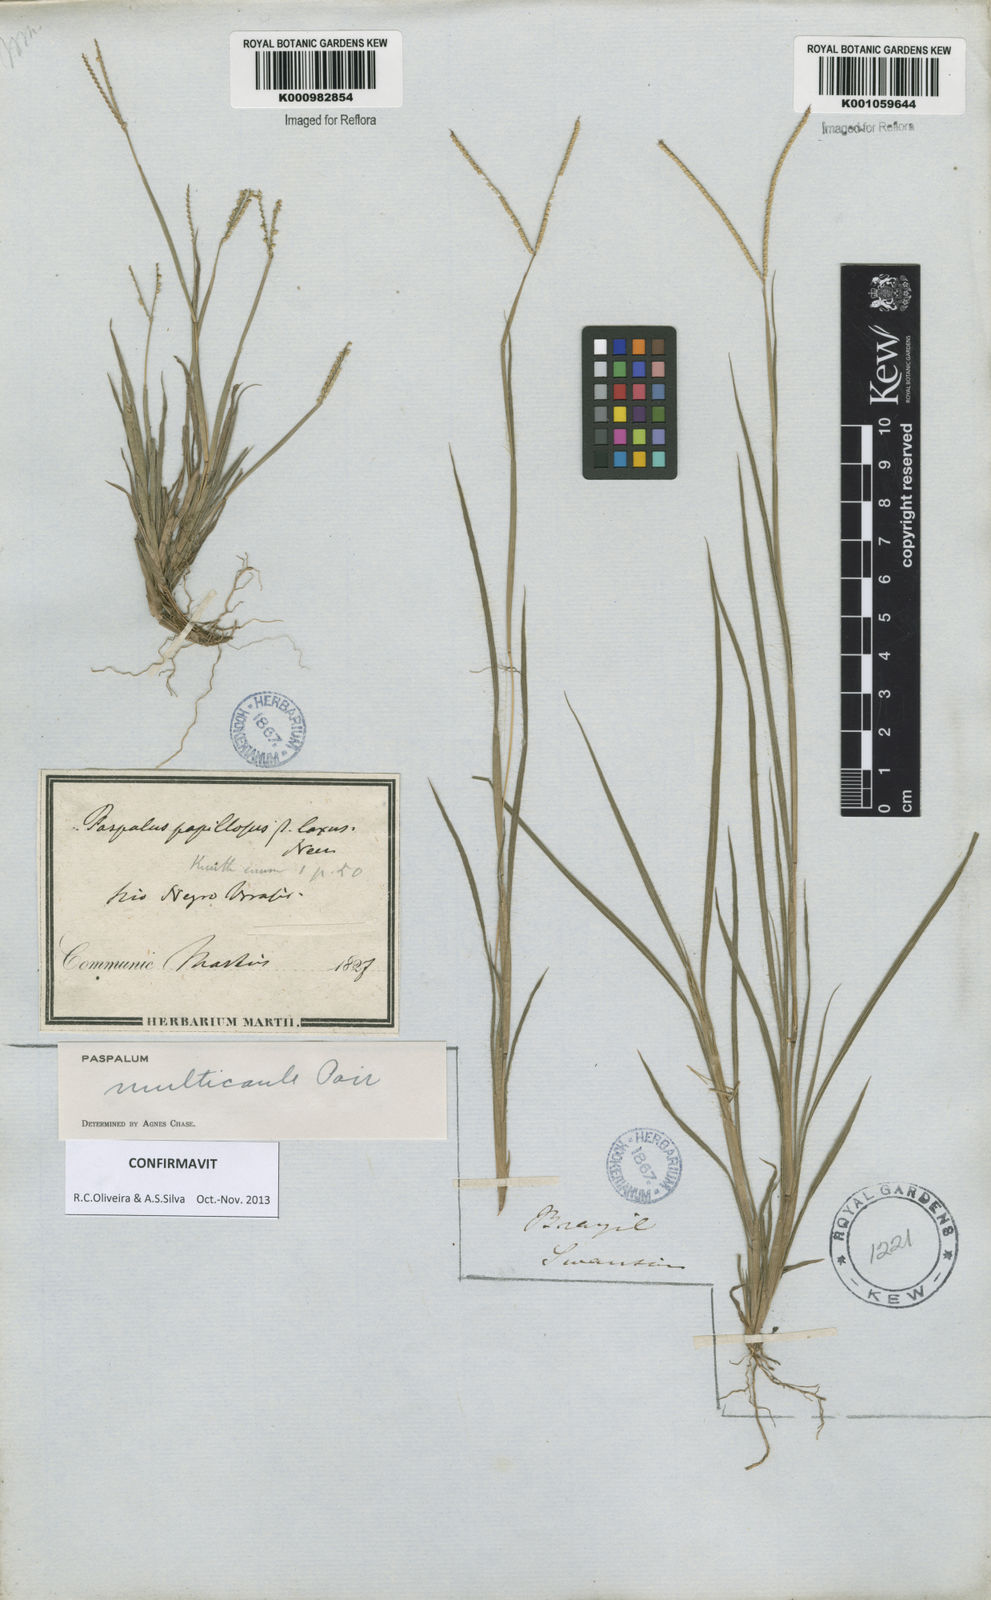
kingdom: Plantae
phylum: Tracheophyta
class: Liliopsida
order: Poales
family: Poaceae
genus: Paspalum
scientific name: Paspalum multicaule
